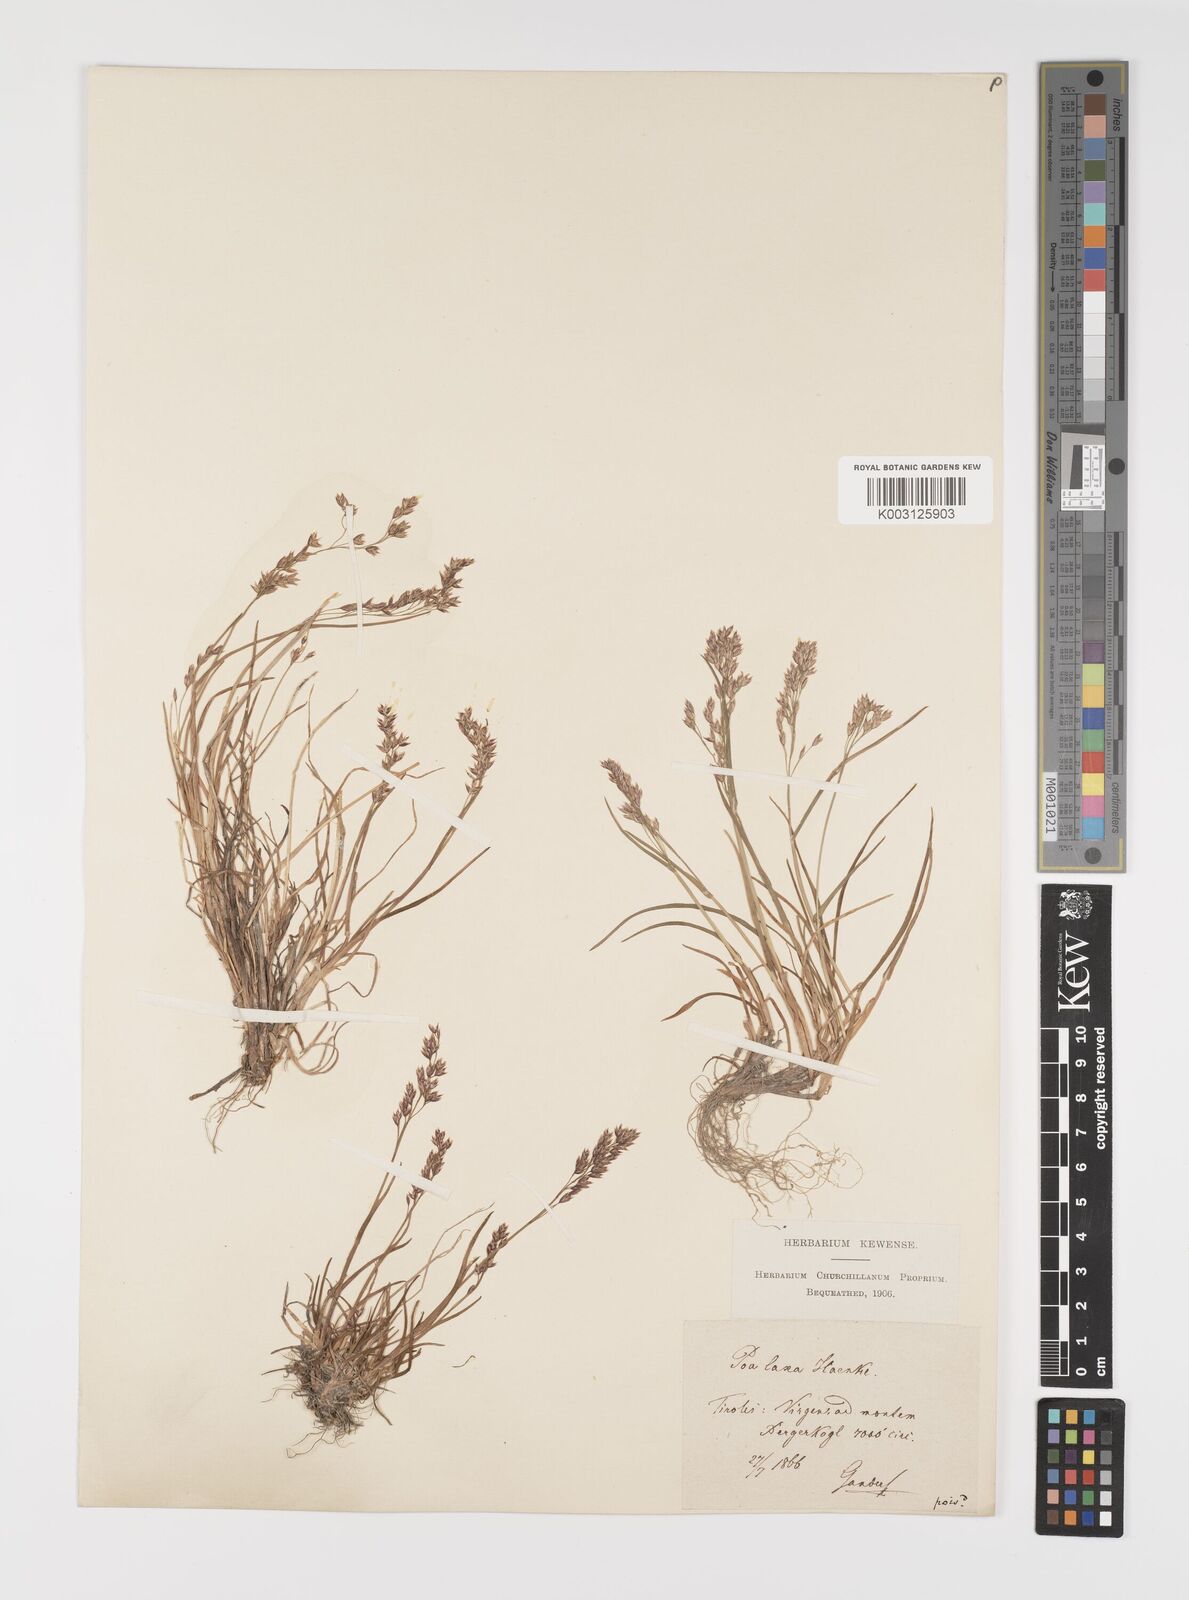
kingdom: Plantae
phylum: Tracheophyta
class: Liliopsida
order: Poales
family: Poaceae
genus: Poa
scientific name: Poa laxa
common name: Lax bluegrass
